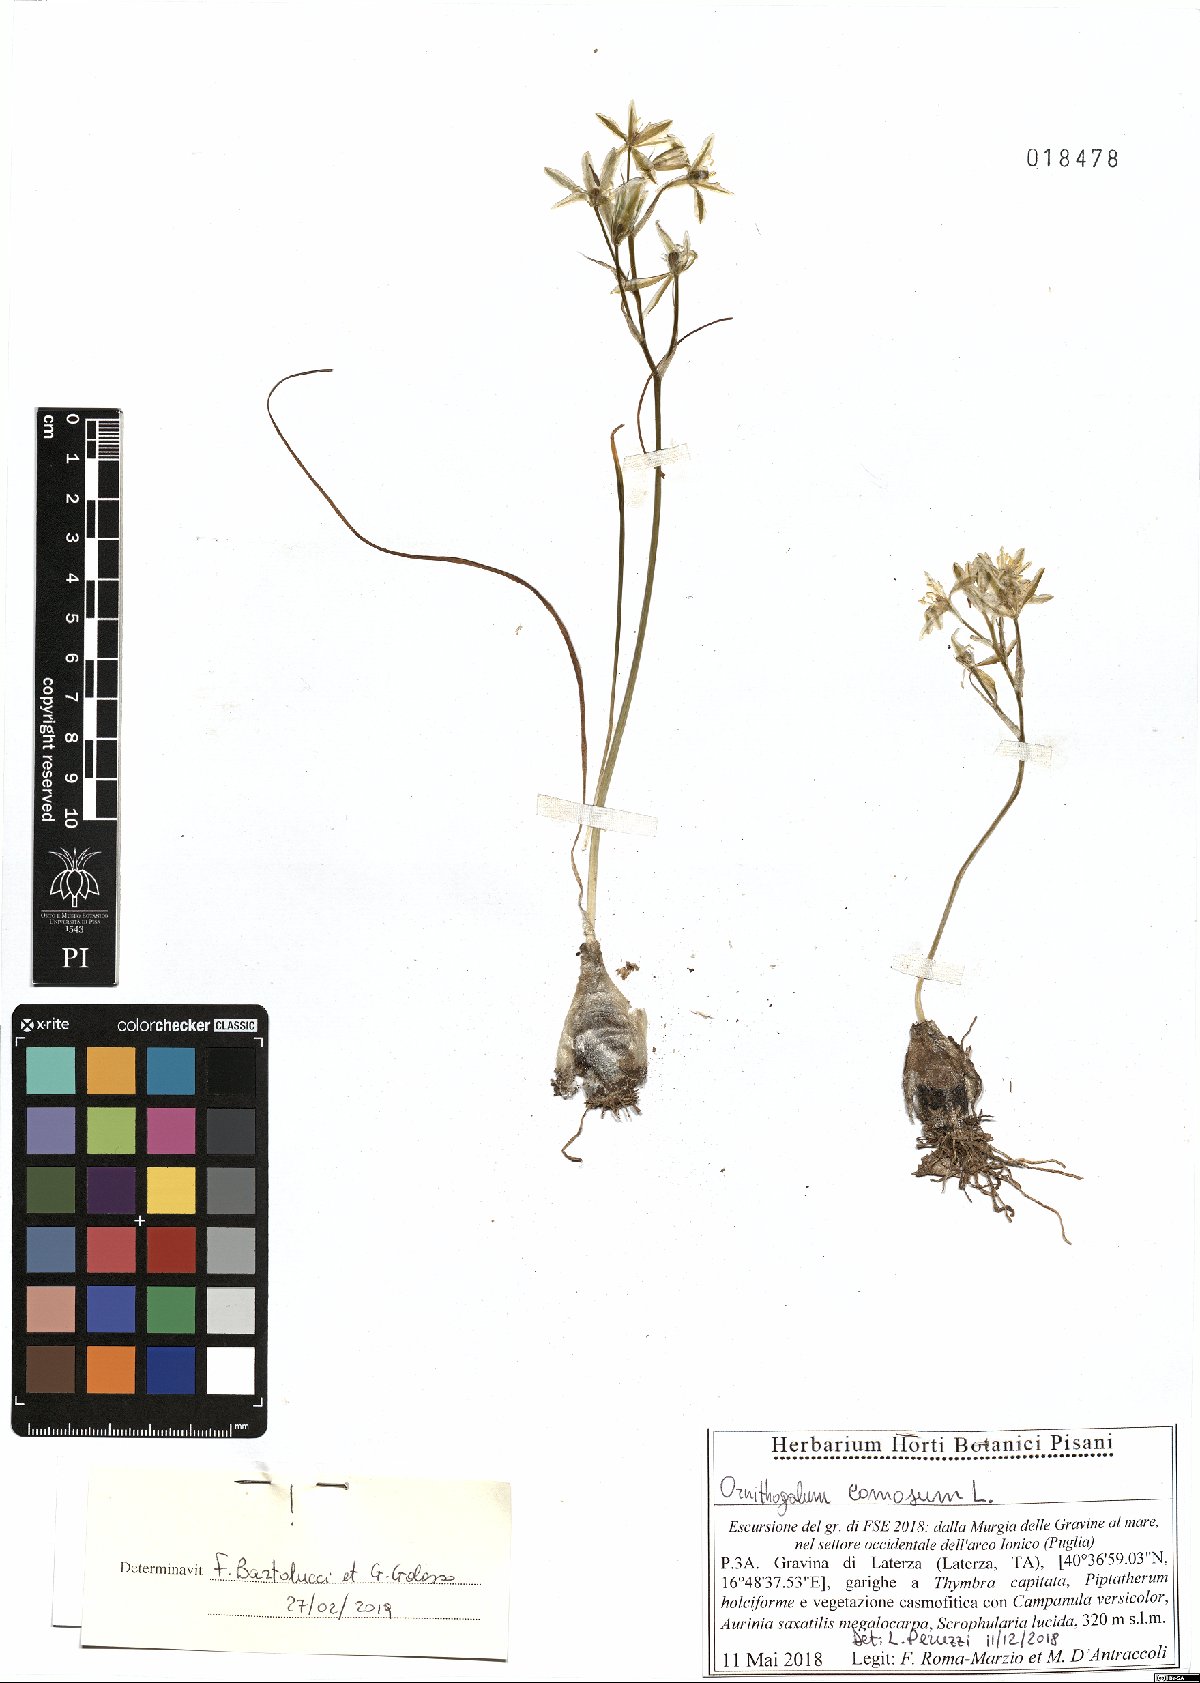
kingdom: Plantae
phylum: Tracheophyta
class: Liliopsida
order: Asparagales
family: Asparagaceae
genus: Ornithogalum
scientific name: Ornithogalum comosum
